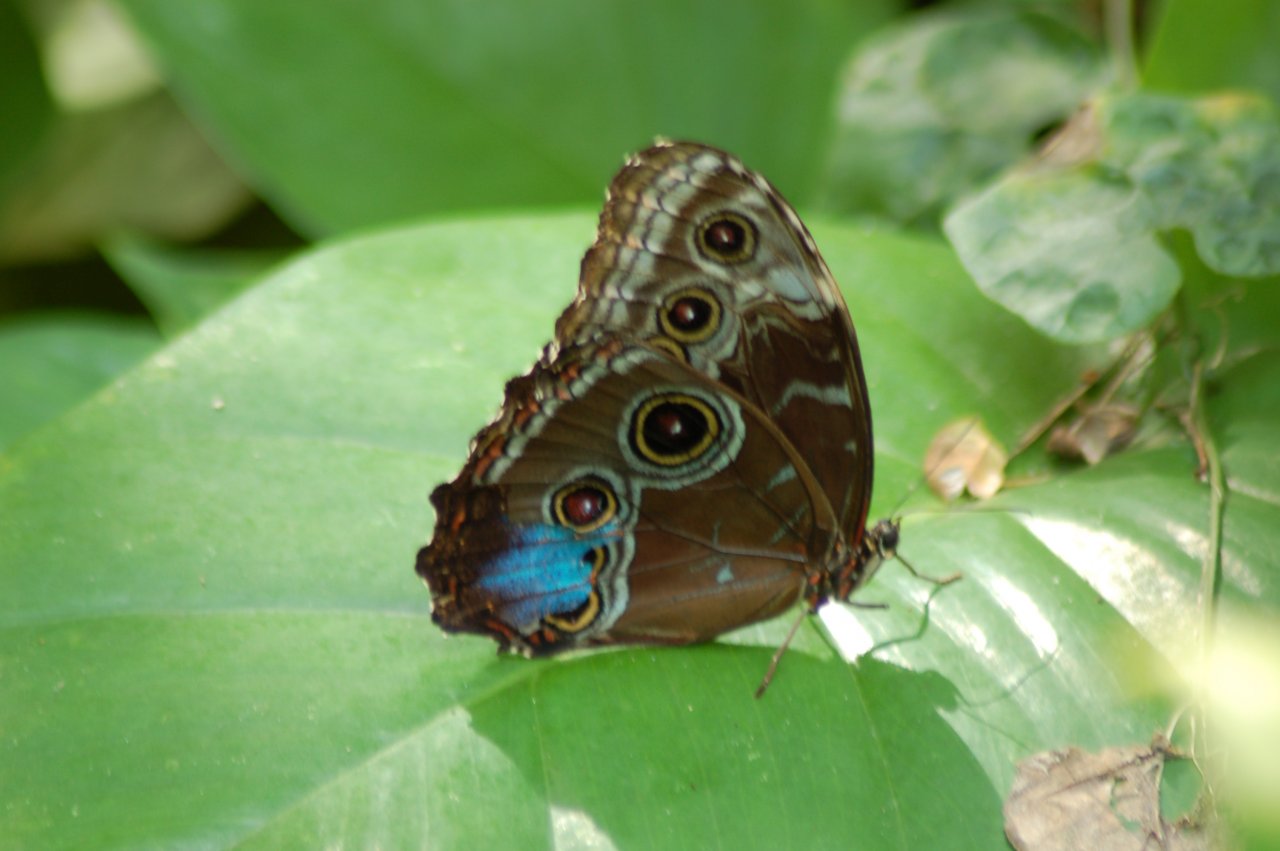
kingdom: Animalia
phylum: Arthropoda
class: Insecta
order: Lepidoptera
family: Nymphalidae
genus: Morpho
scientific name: Morpho helenor
